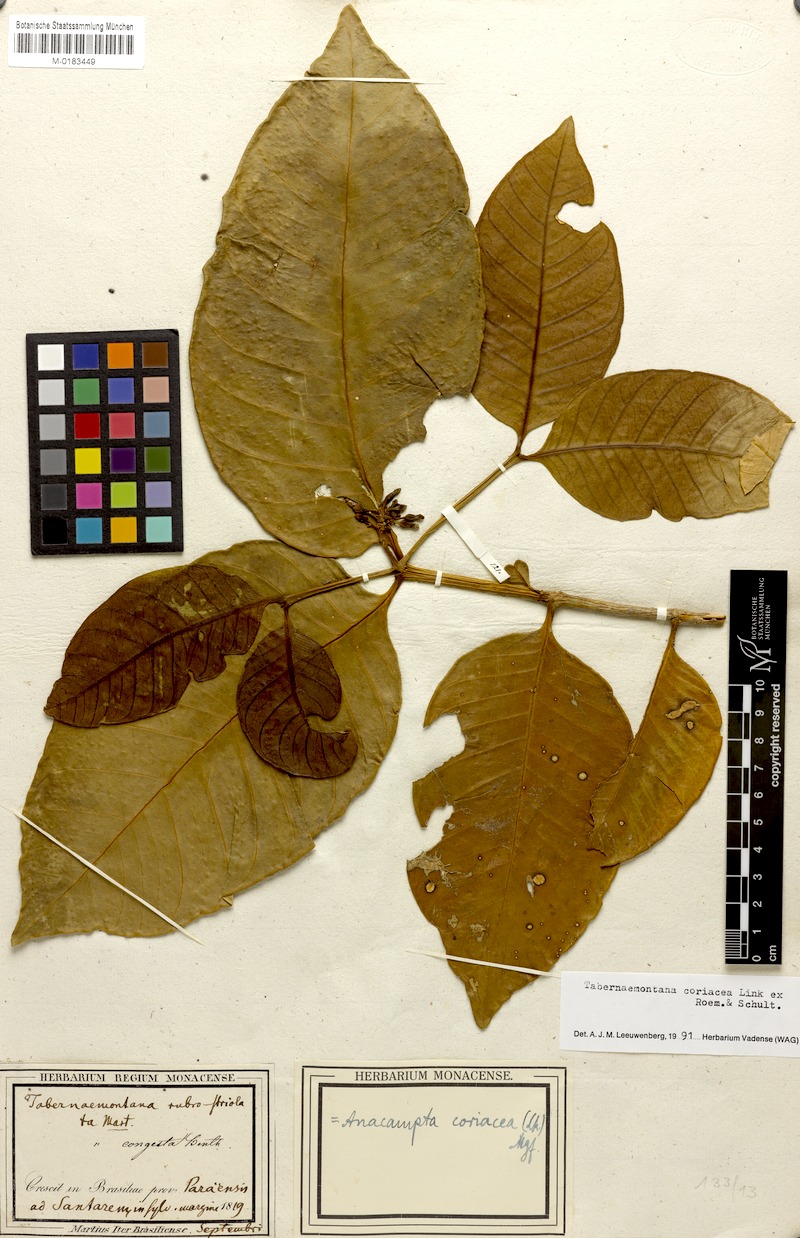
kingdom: Plantae
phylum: Tracheophyta
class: Magnoliopsida
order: Gentianales
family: Apocynaceae
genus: Tabernaemontana
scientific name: Tabernaemontana coriacea
